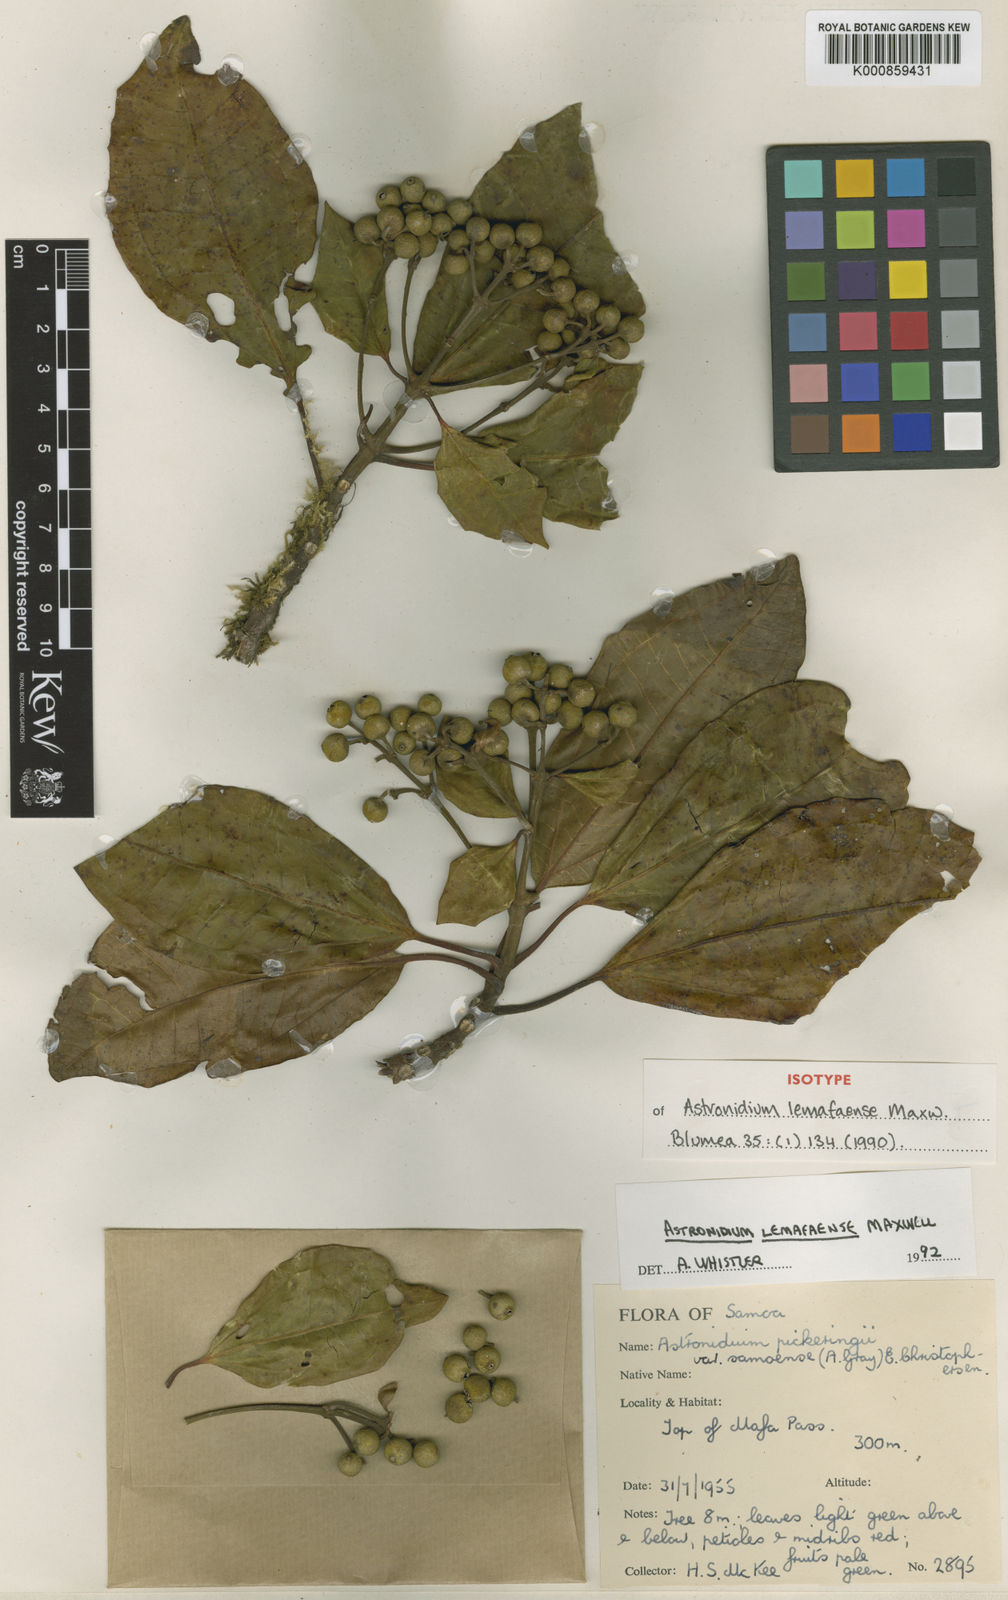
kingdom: Plantae
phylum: Tracheophyta
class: Magnoliopsida
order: Myrtales
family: Melastomataceae
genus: Astronidium
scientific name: Astronidium lemafaense
